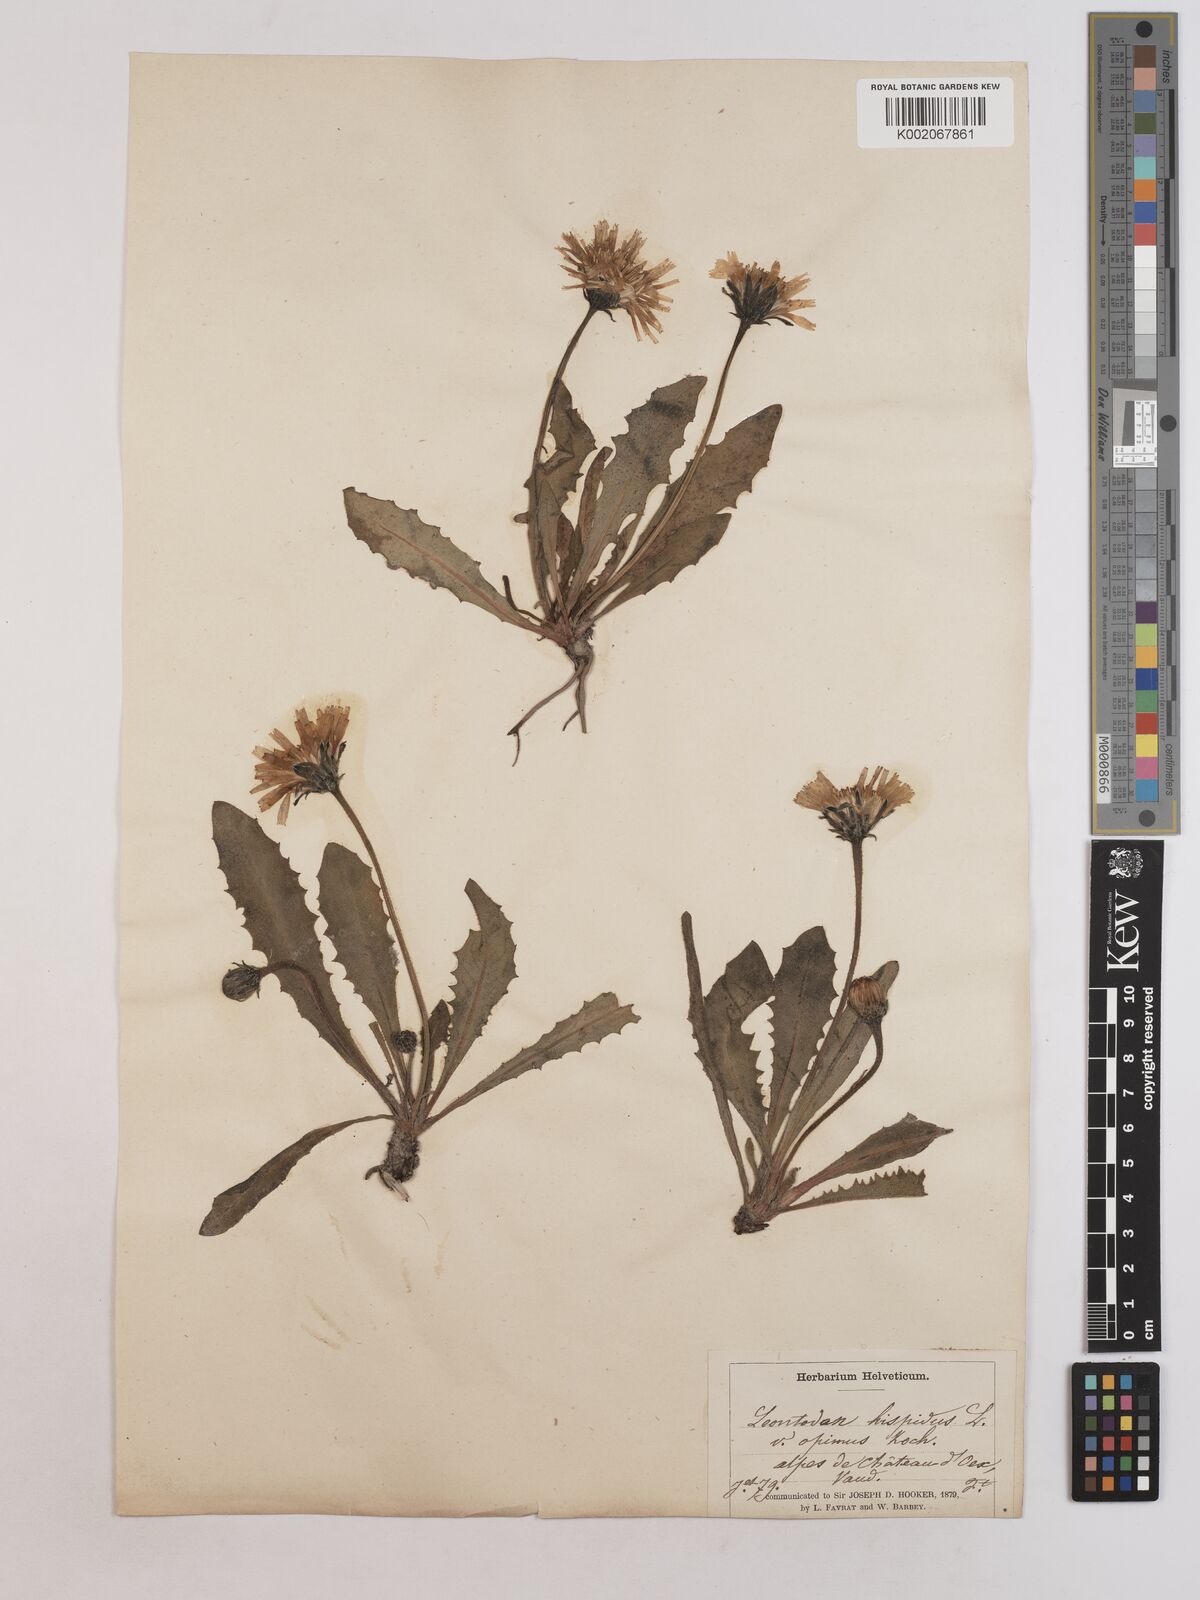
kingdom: Plantae
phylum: Tracheophyta
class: Magnoliopsida
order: Asterales
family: Asteraceae
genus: Leontodon
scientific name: Leontodon
